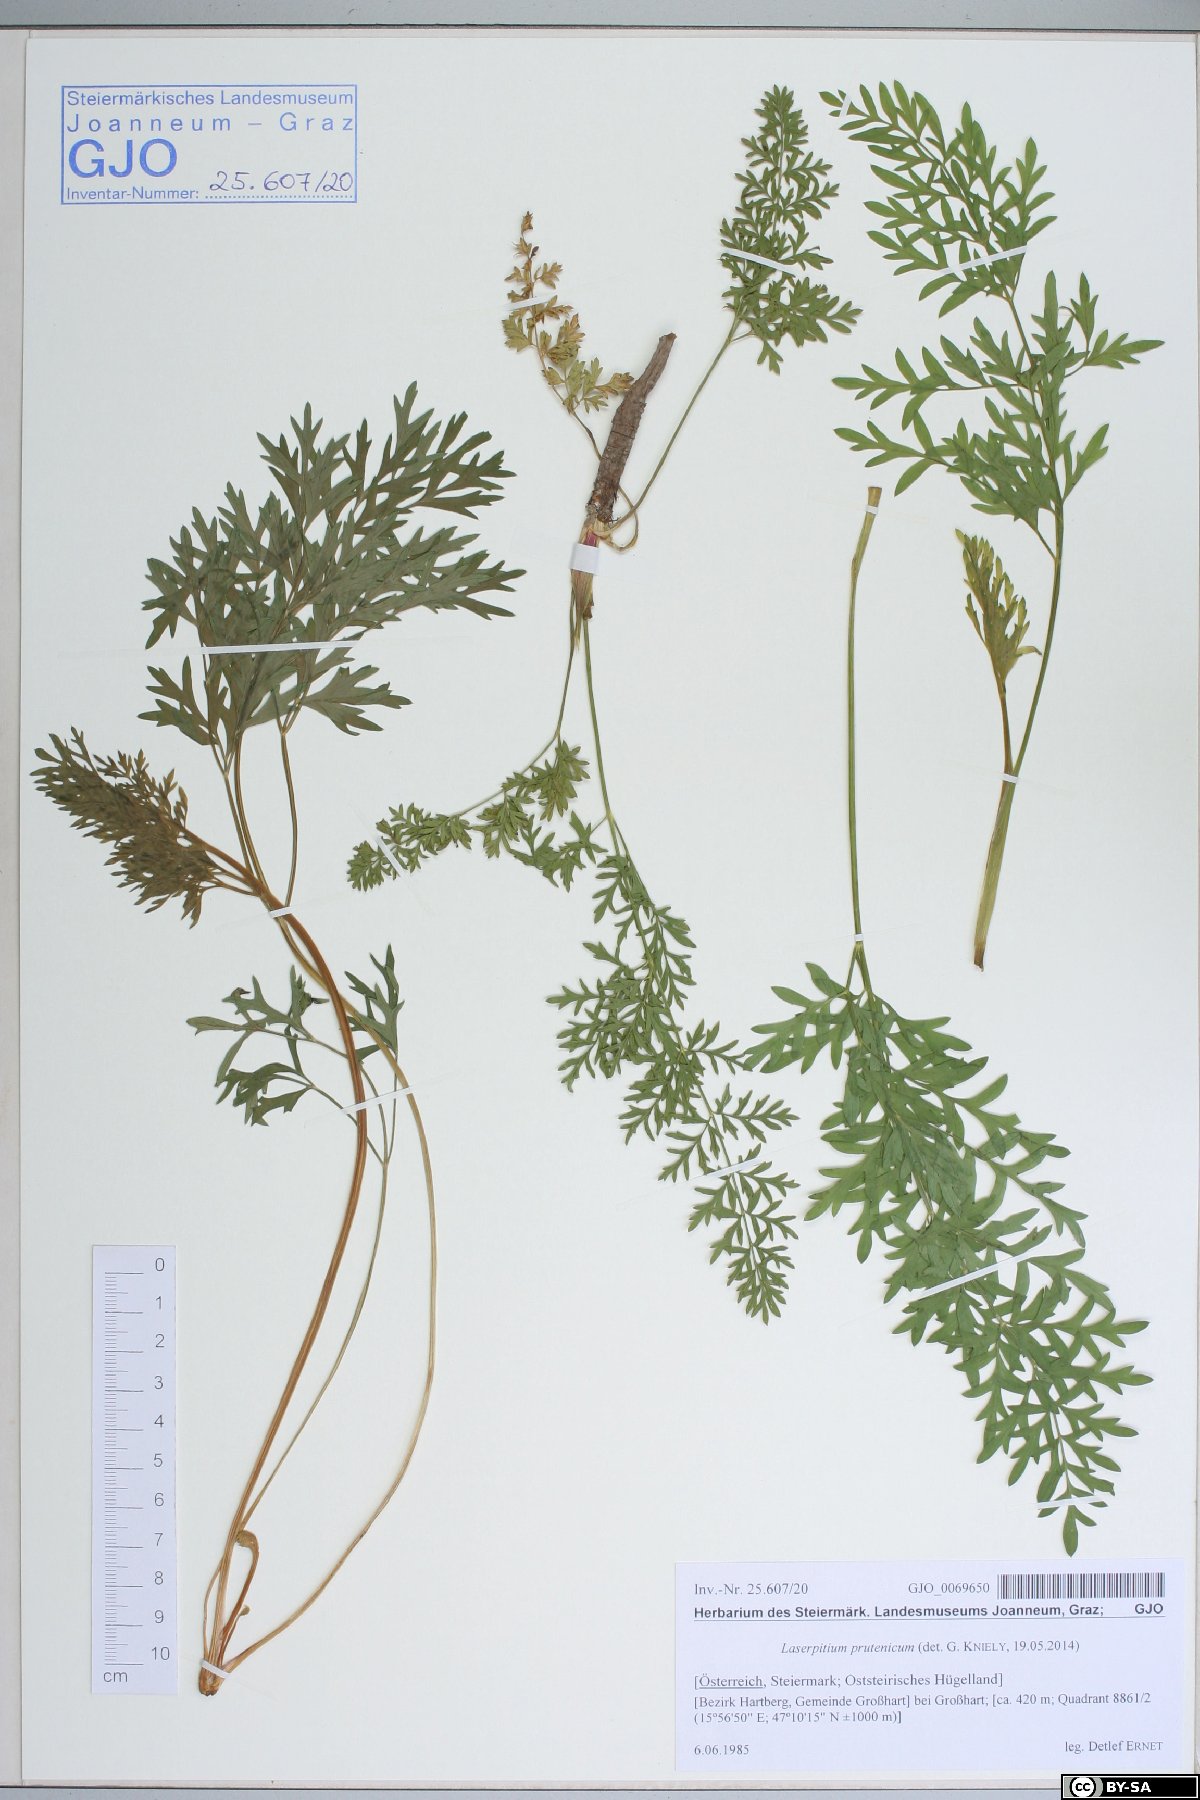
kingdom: Plantae
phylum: Tracheophyta
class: Magnoliopsida
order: Apiales
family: Apiaceae
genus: Silphiodaucus
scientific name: Silphiodaucus prutenicus
